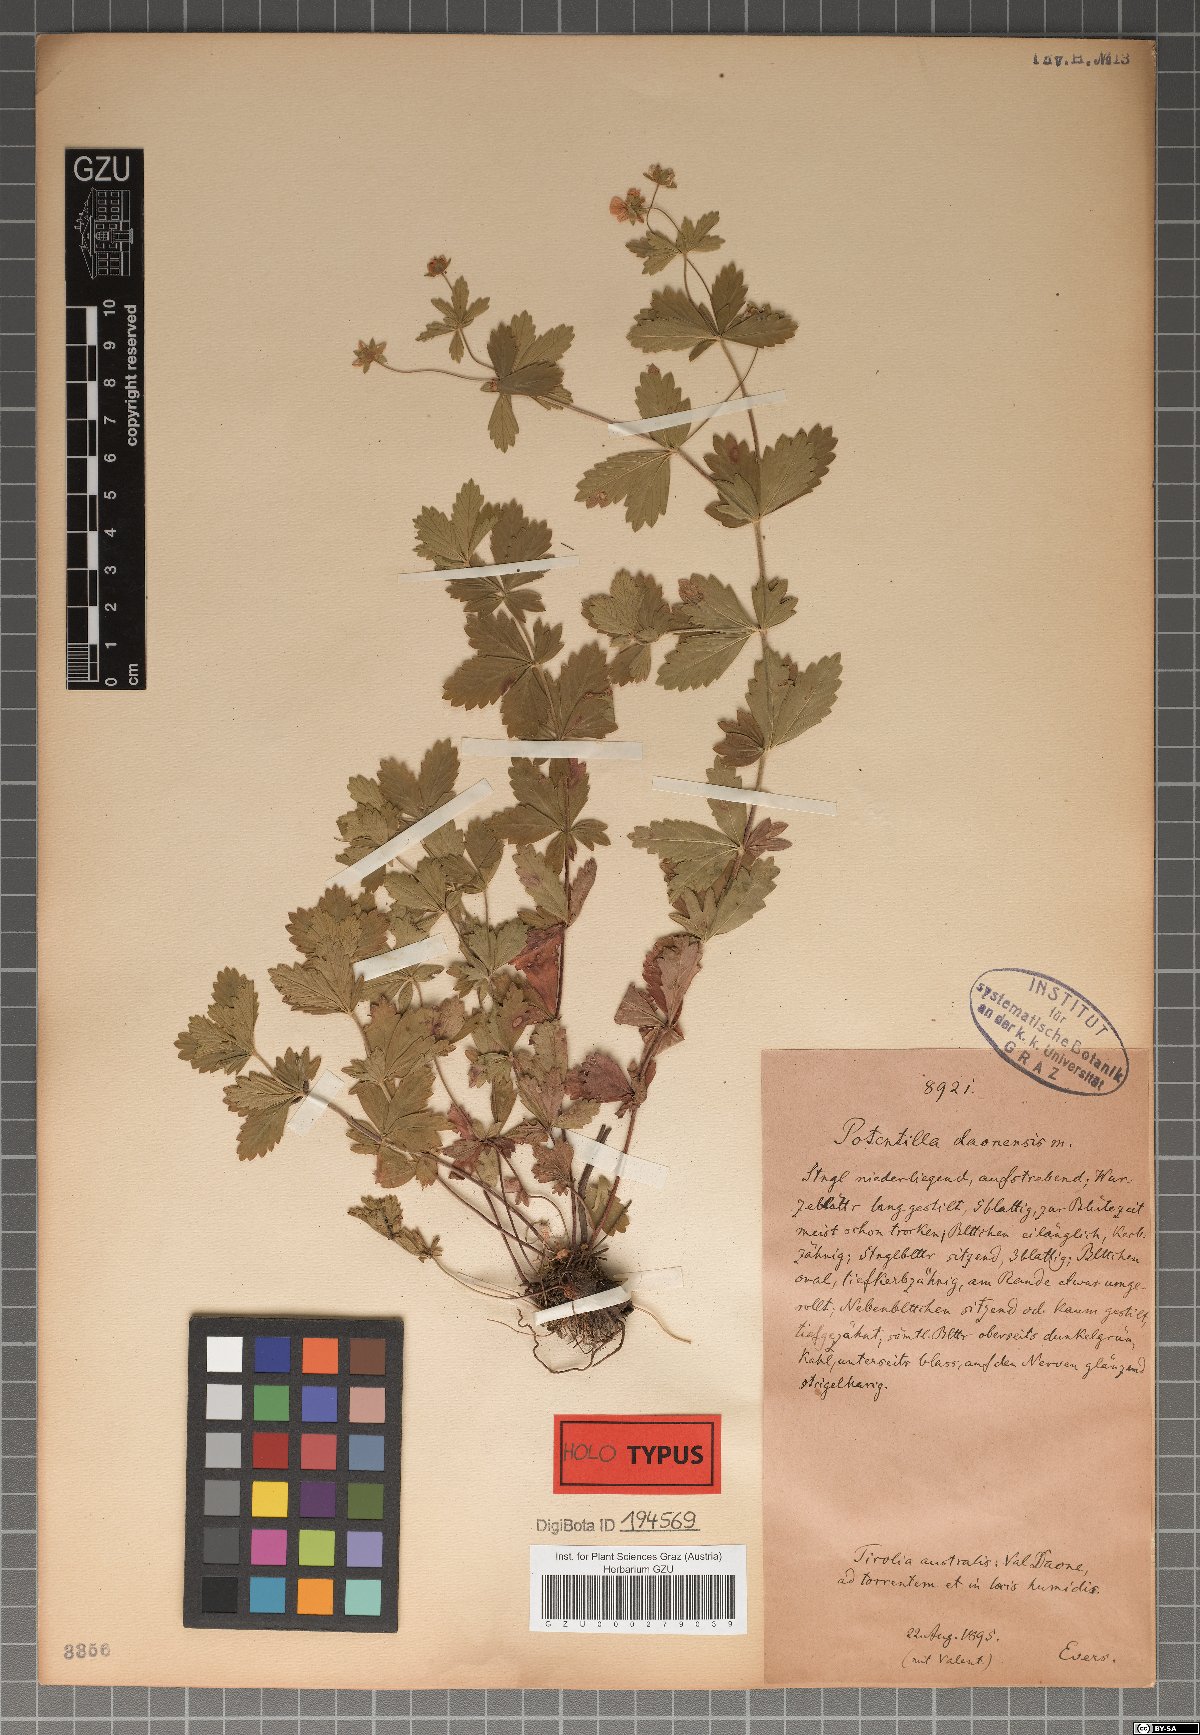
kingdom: Plantae
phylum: Tracheophyta
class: Magnoliopsida
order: Rosales
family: Rosaceae
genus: Potentilla
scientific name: Potentilla daonensis
